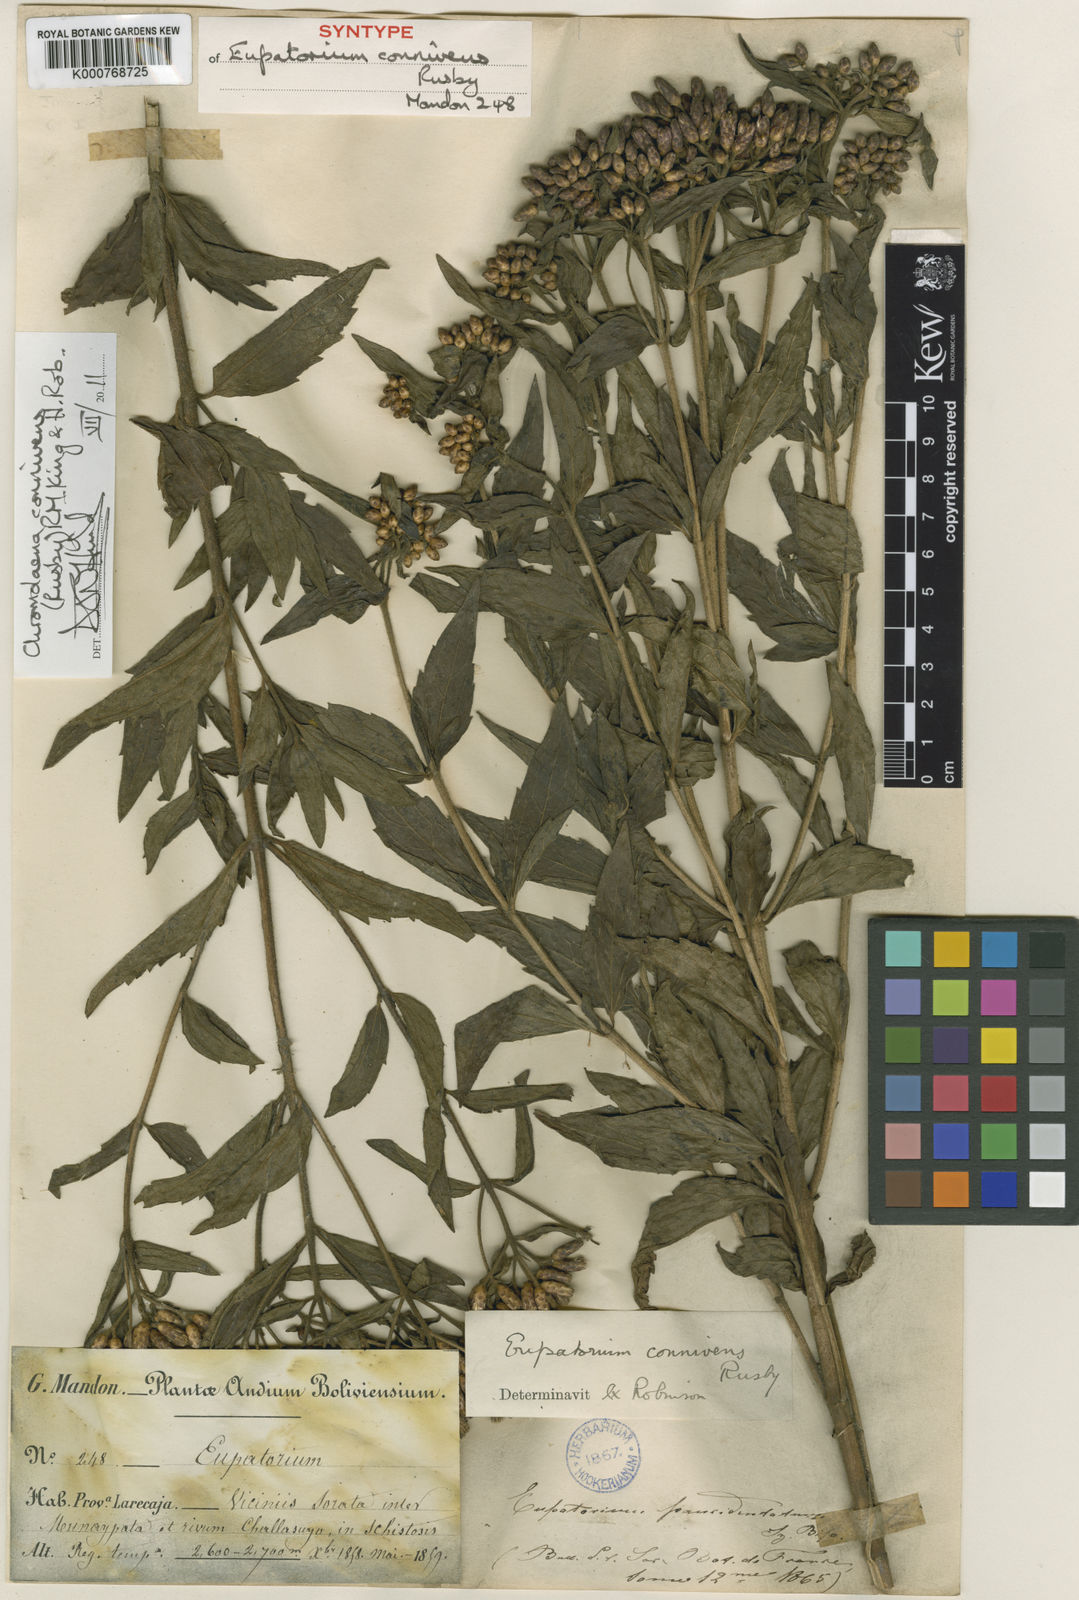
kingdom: Plantae
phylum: Tracheophyta
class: Magnoliopsida
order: Asterales
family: Asteraceae
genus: Chromolaena
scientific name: Chromolaena connivens
